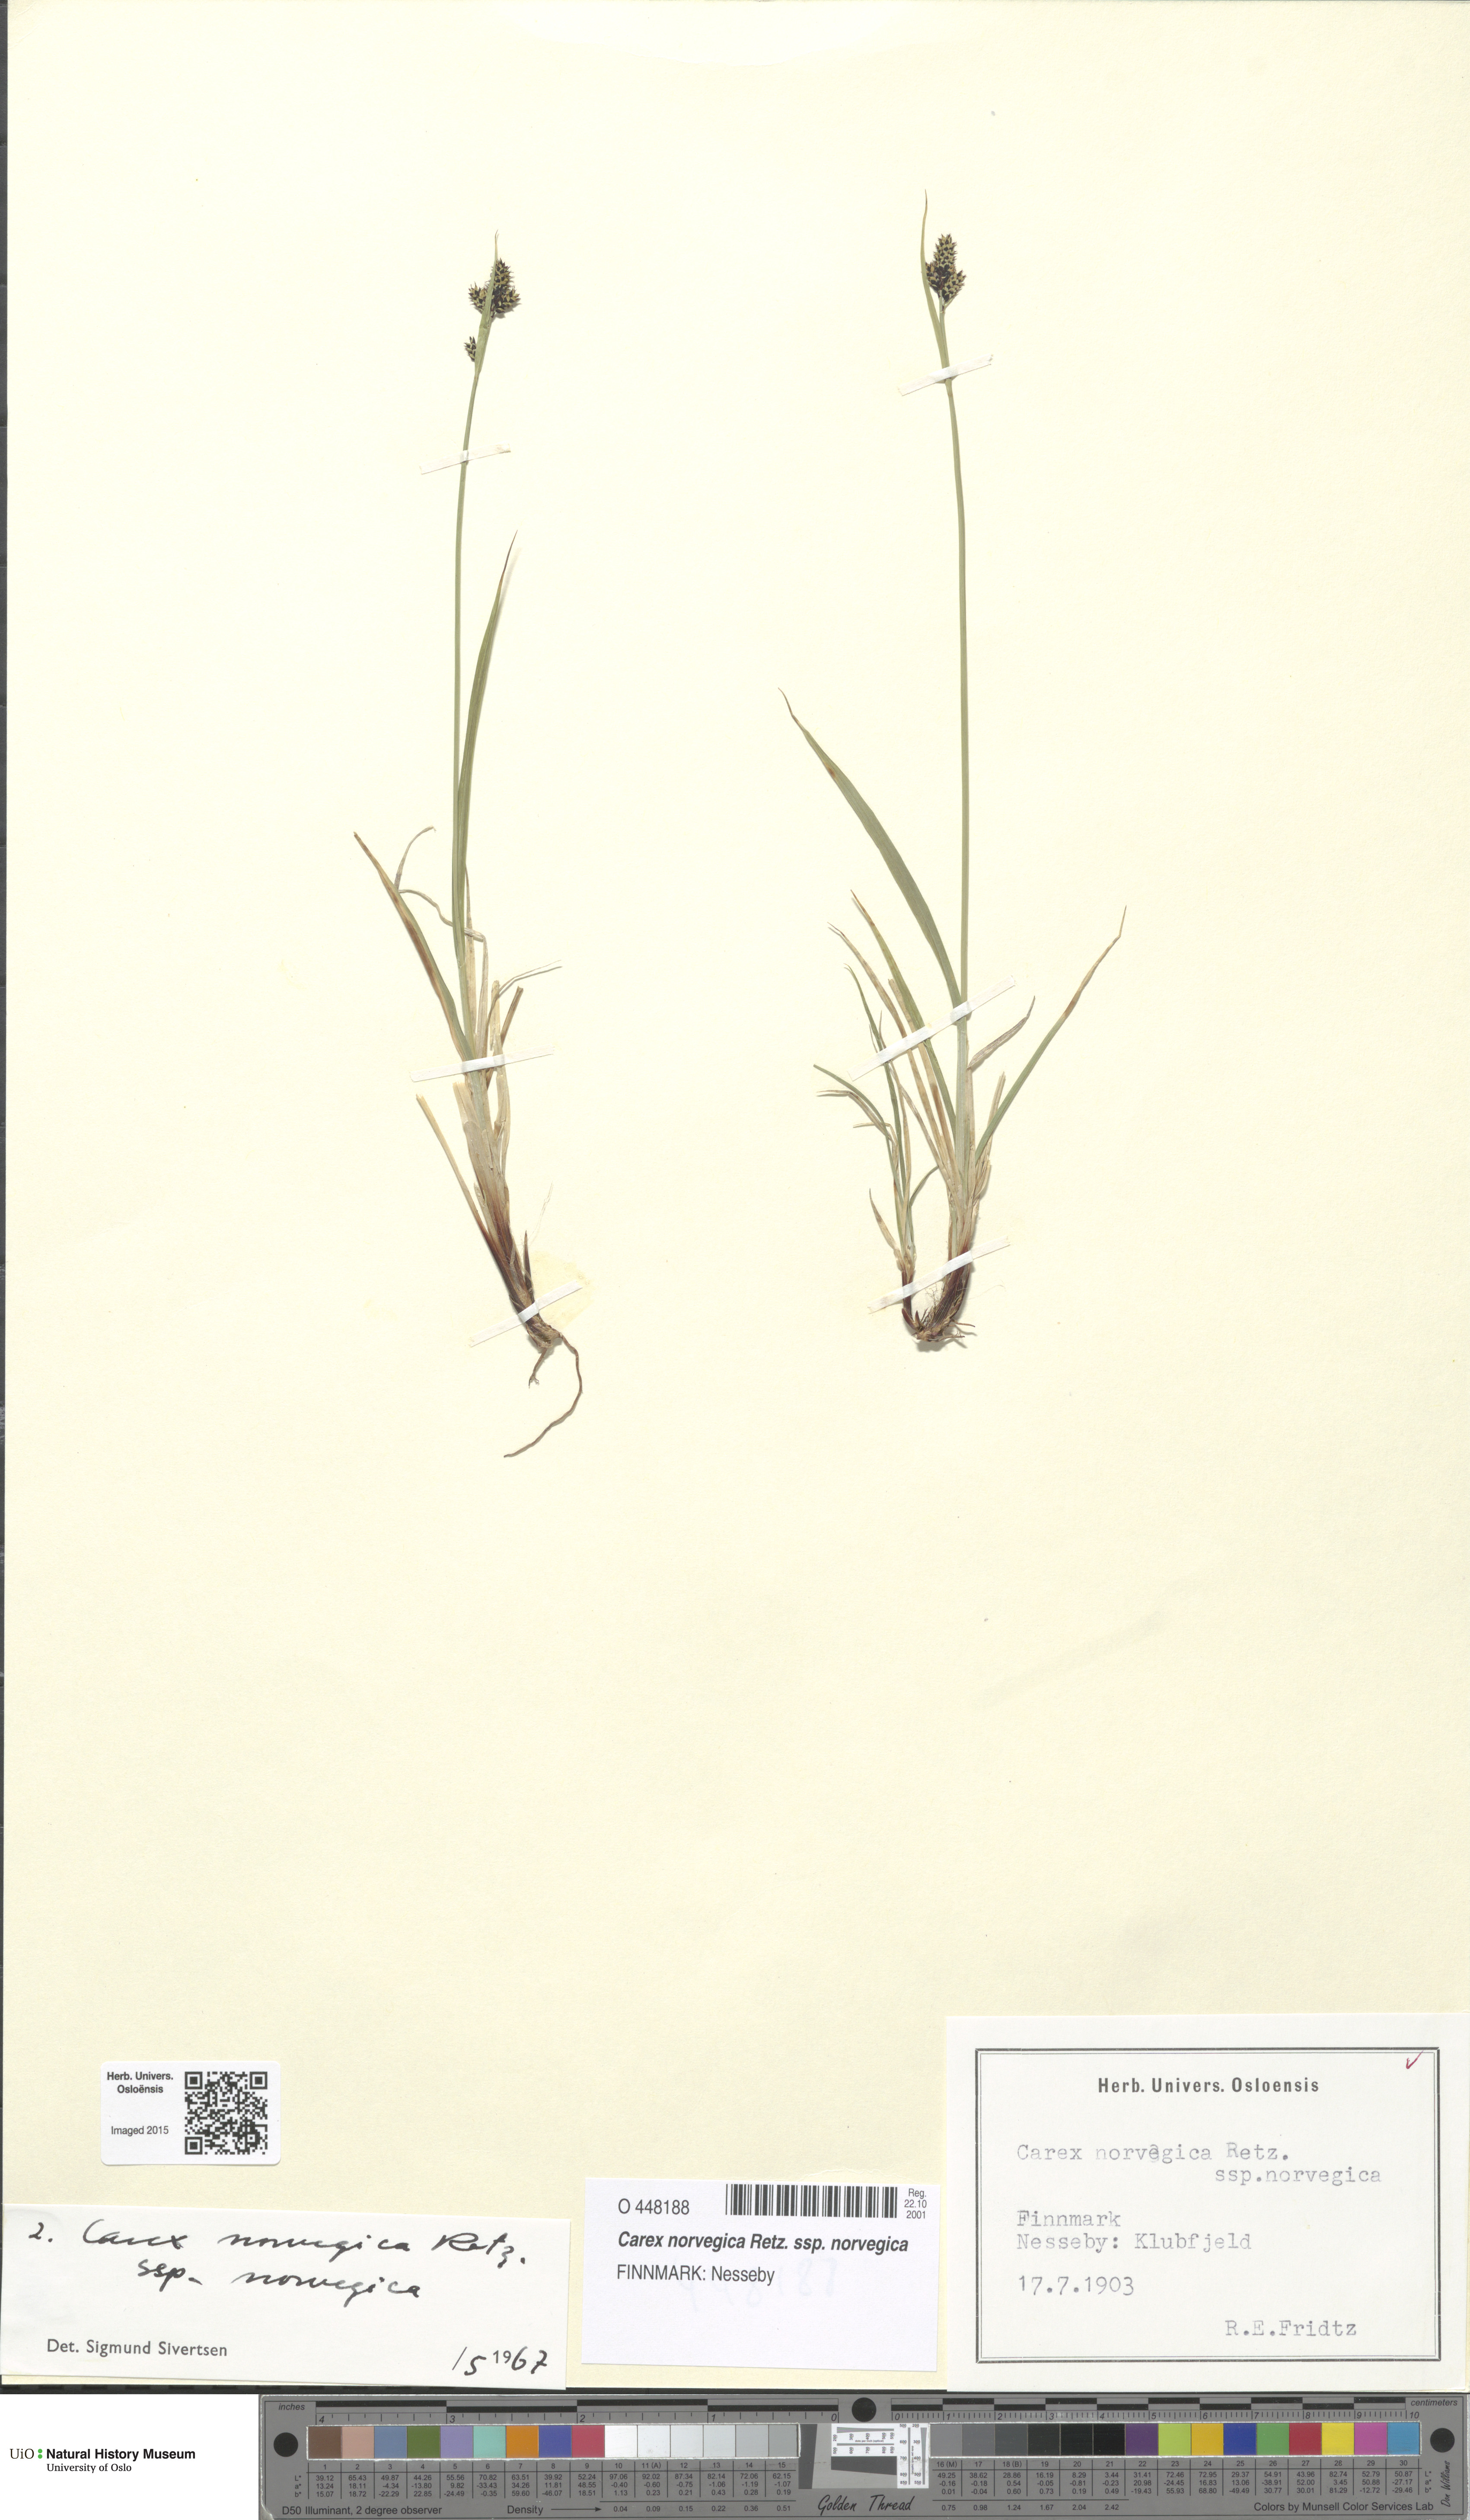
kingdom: Plantae
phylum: Tracheophyta
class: Liliopsida
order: Poales
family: Cyperaceae
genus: Carex
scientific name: Carex norvegica
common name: Close-headed alpine-sedge
